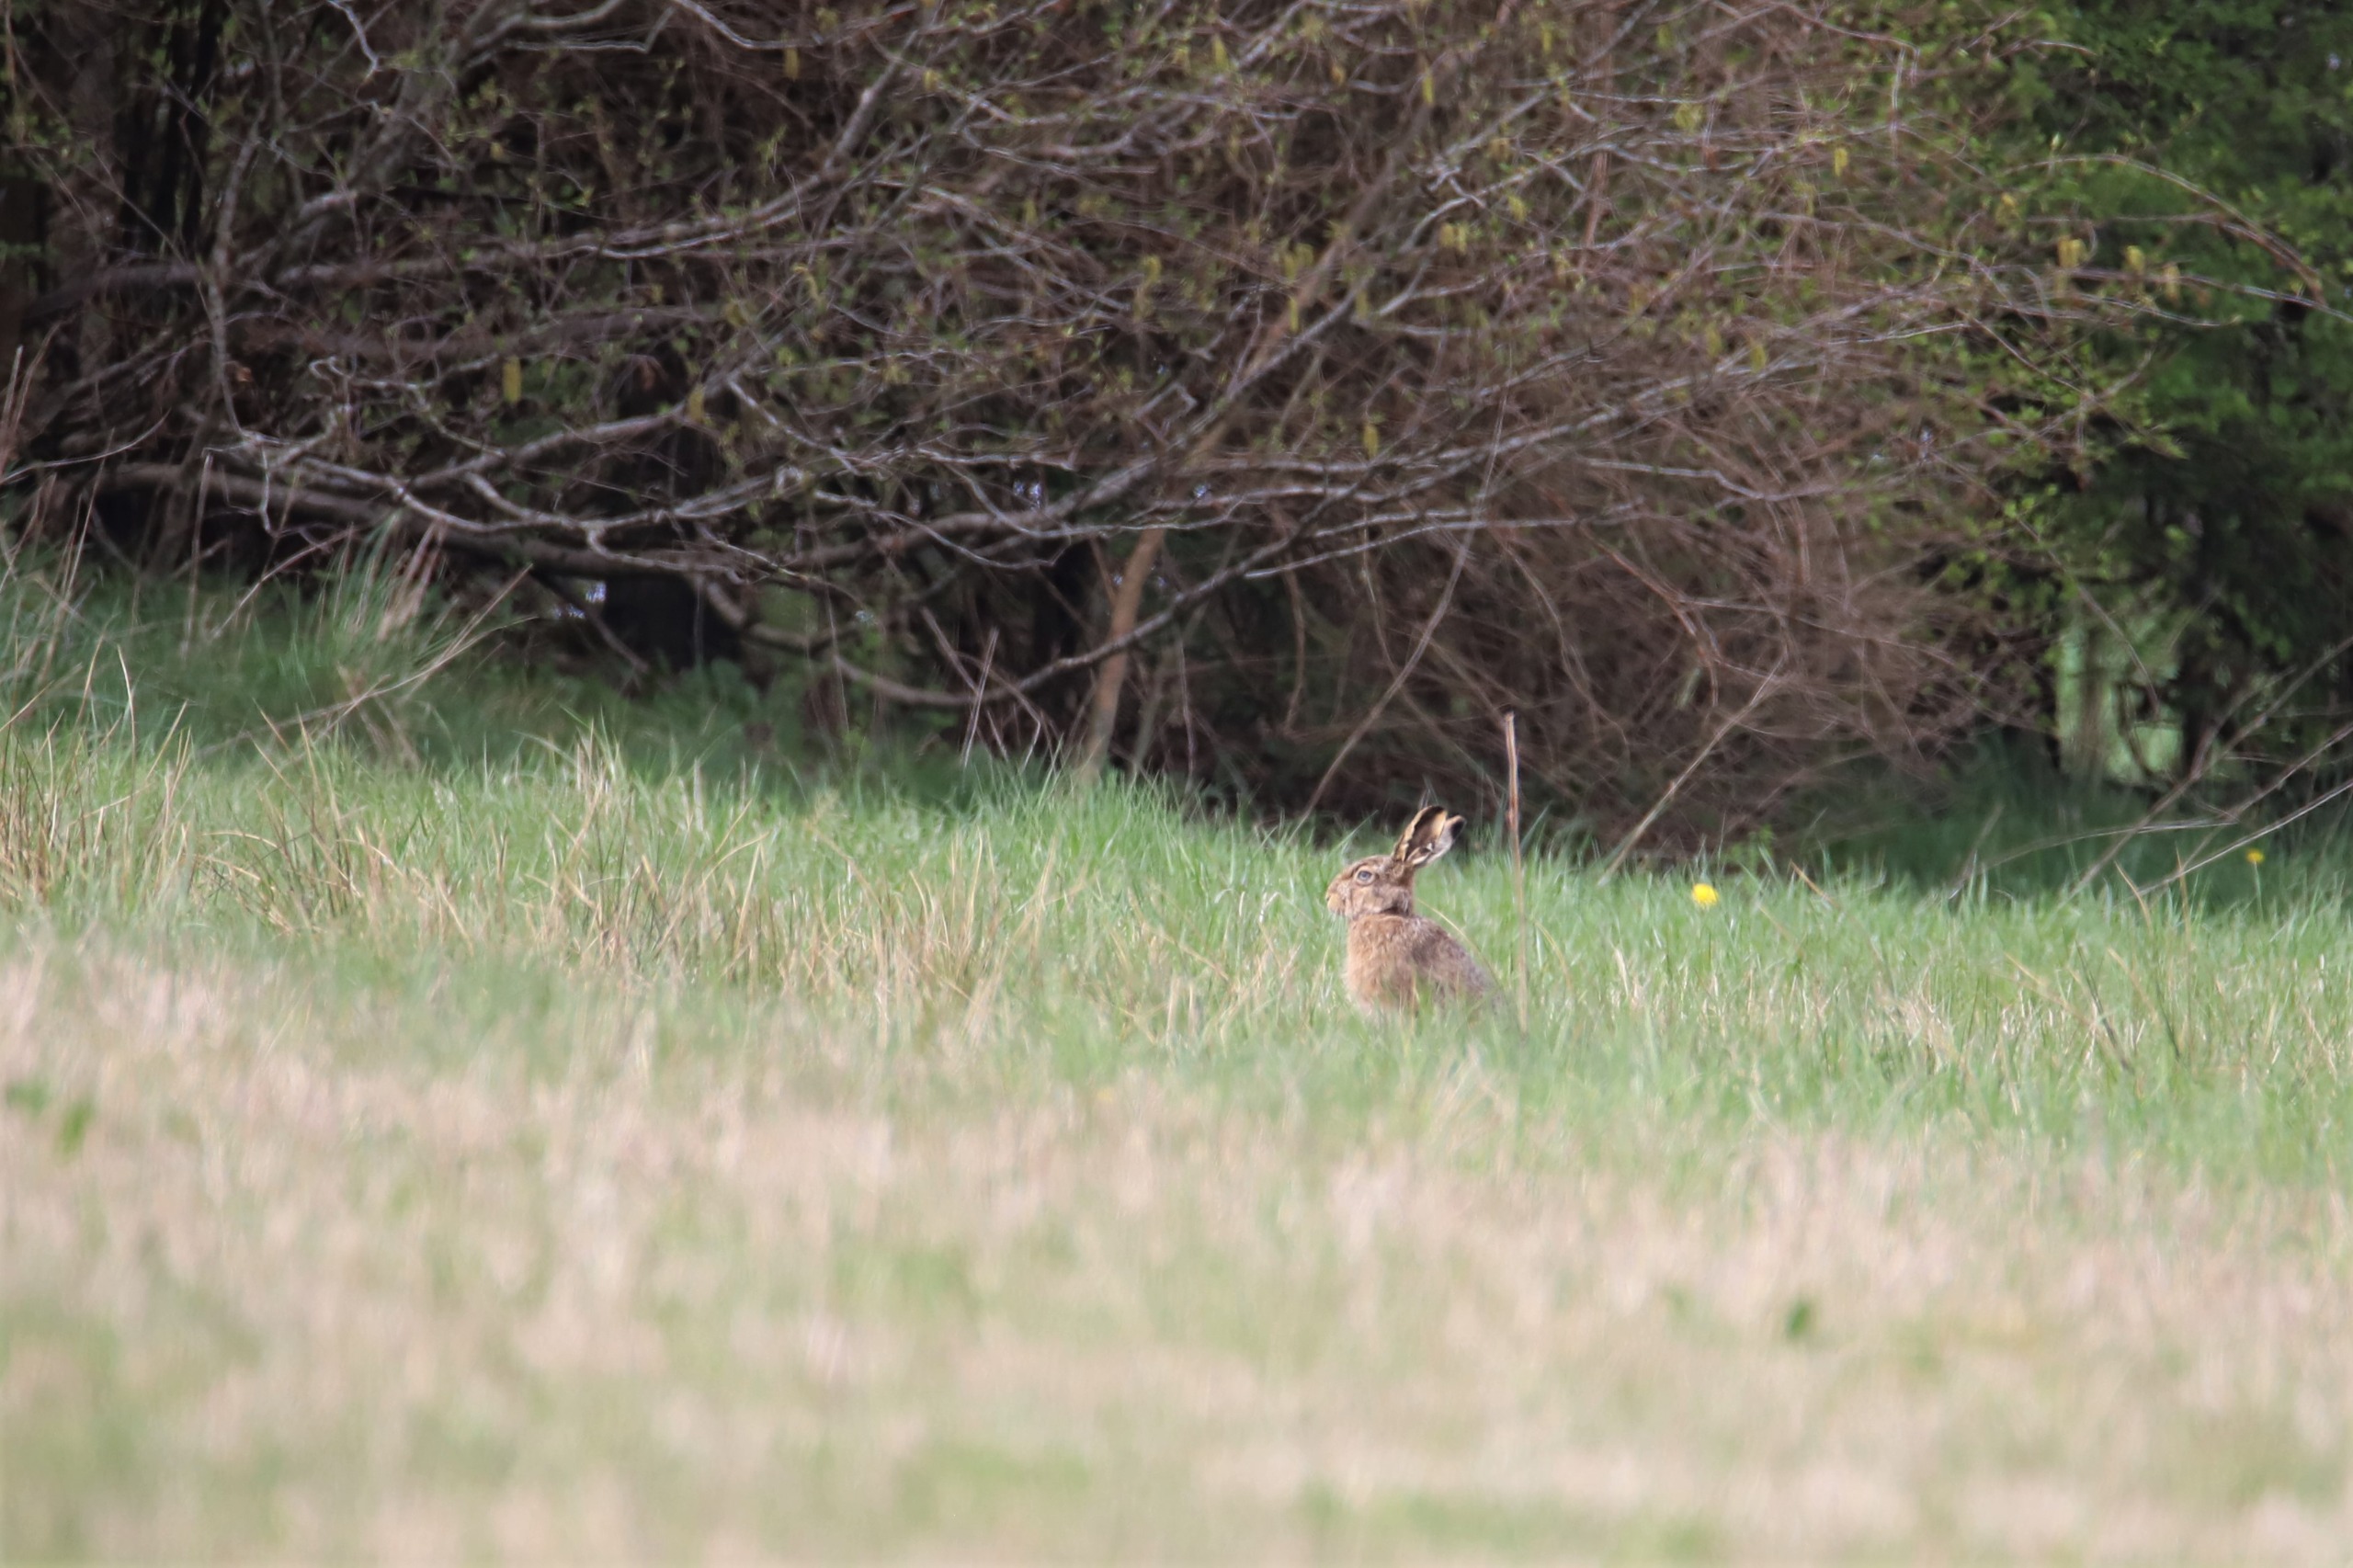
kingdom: Animalia
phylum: Chordata
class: Mammalia
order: Lagomorpha
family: Leporidae
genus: Lepus
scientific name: Lepus europaeus
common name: Hare
